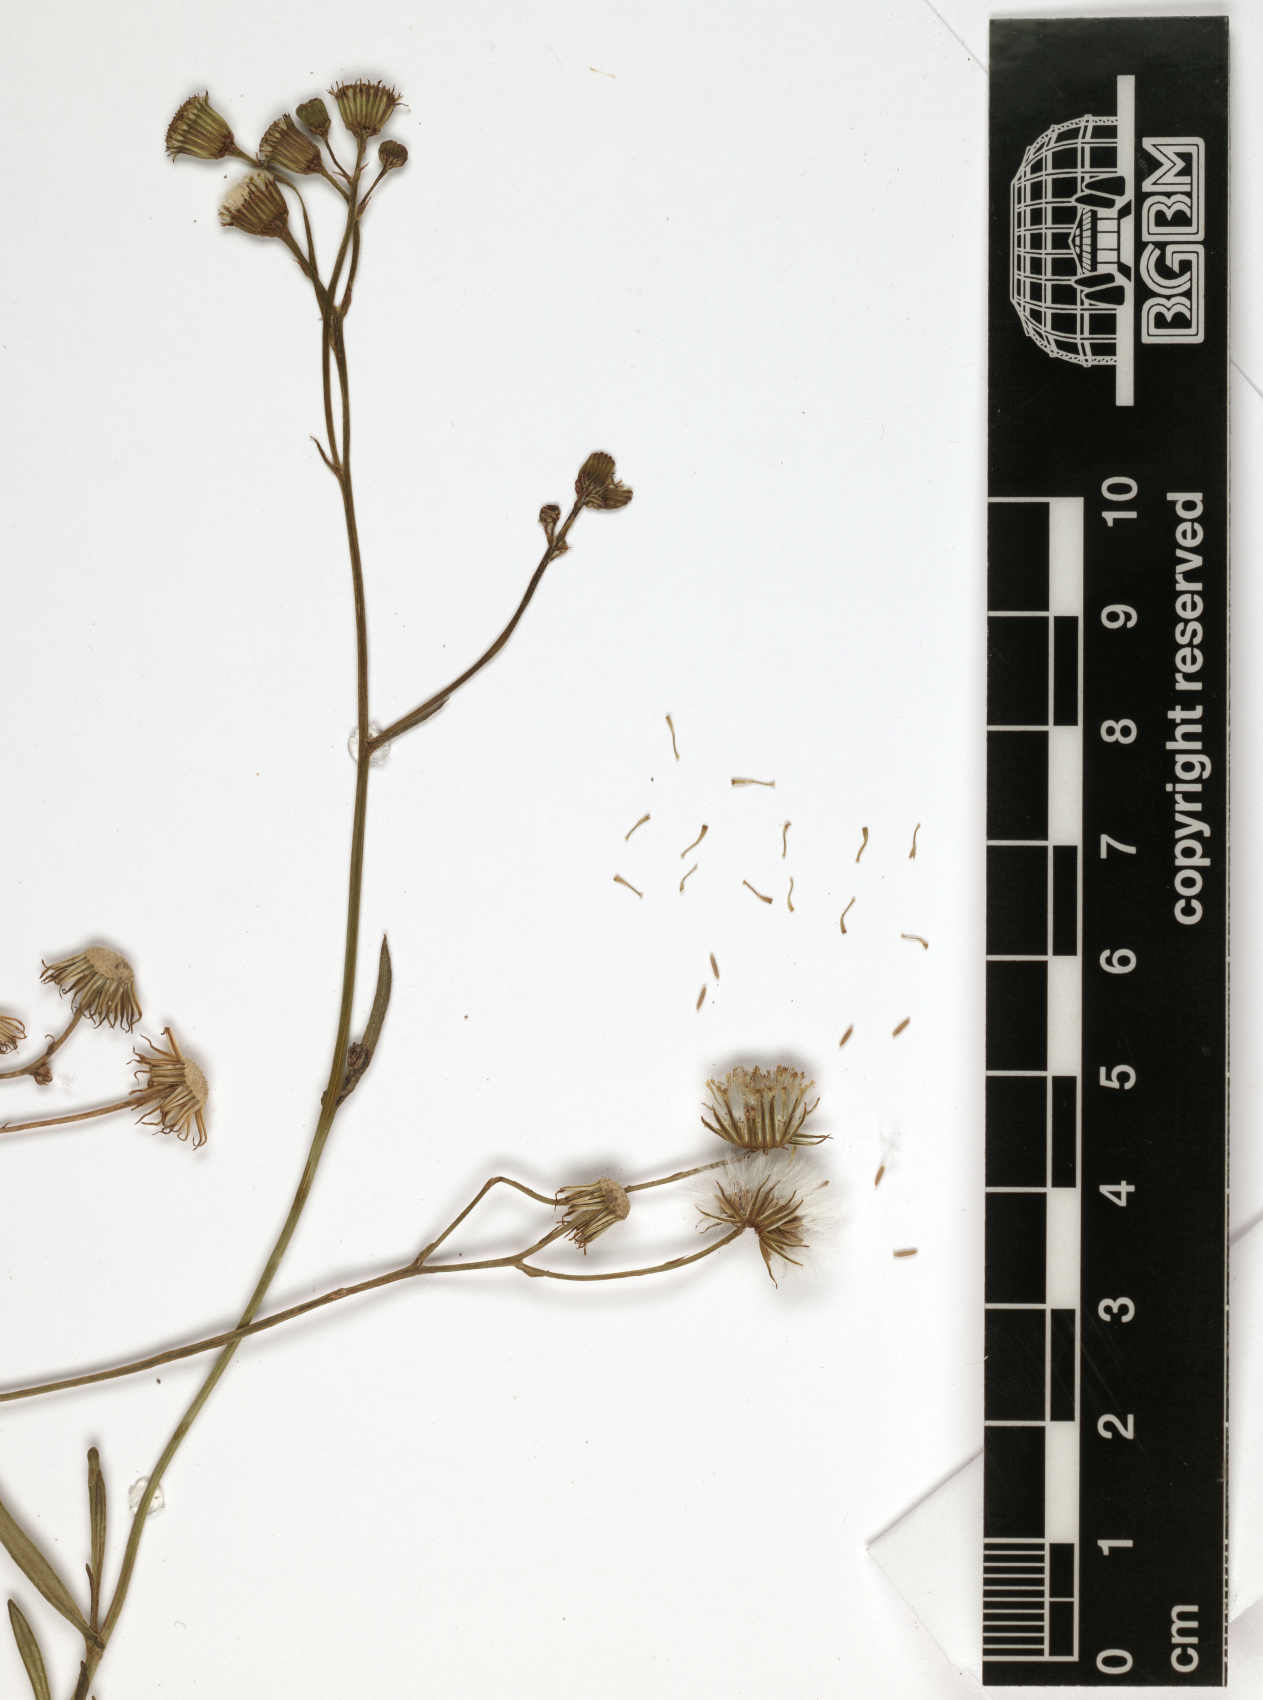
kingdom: Plantae
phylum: Tracheophyta
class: Magnoliopsida
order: Asterales
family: Asteraceae
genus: Senecio
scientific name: Senecio schimperi
